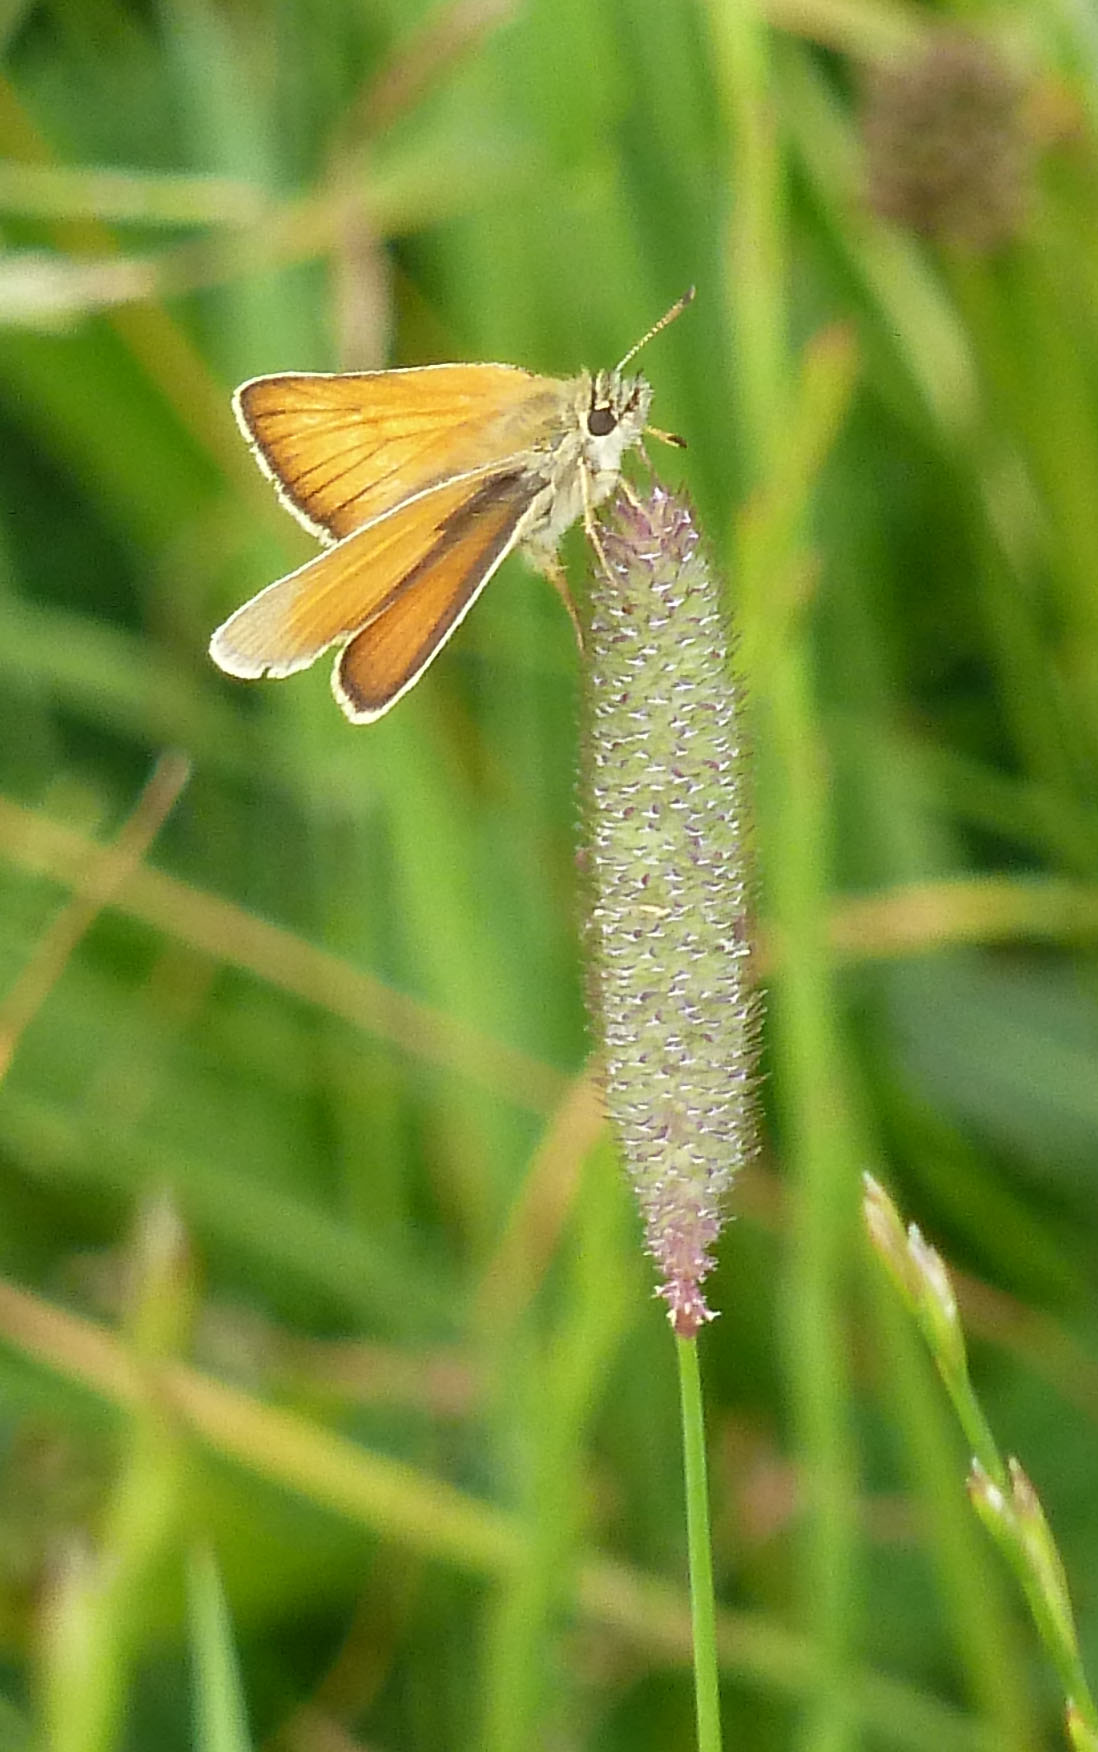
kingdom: Animalia
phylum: Arthropoda
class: Insecta
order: Lepidoptera
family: Hesperiidae
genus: Thymelicus
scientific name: Thymelicus lineola
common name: Essex skipper
